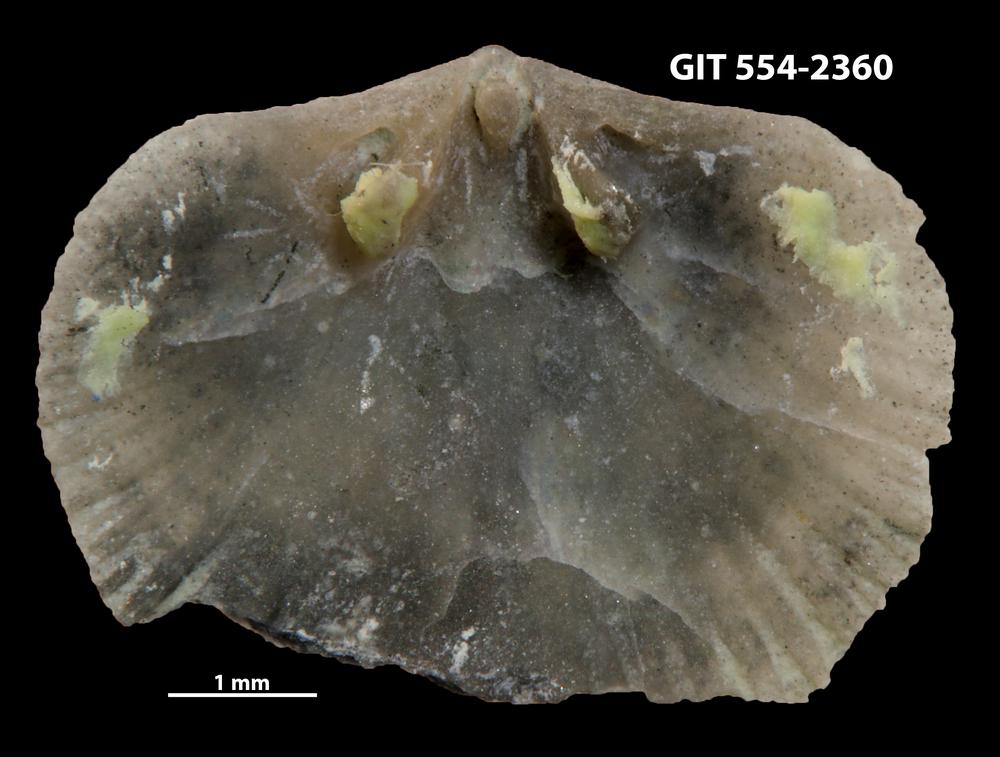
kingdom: Animalia
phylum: Brachiopoda
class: Rhynchonellata
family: Saukrodictyidae
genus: Saukrodictya
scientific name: Saukrodictya
